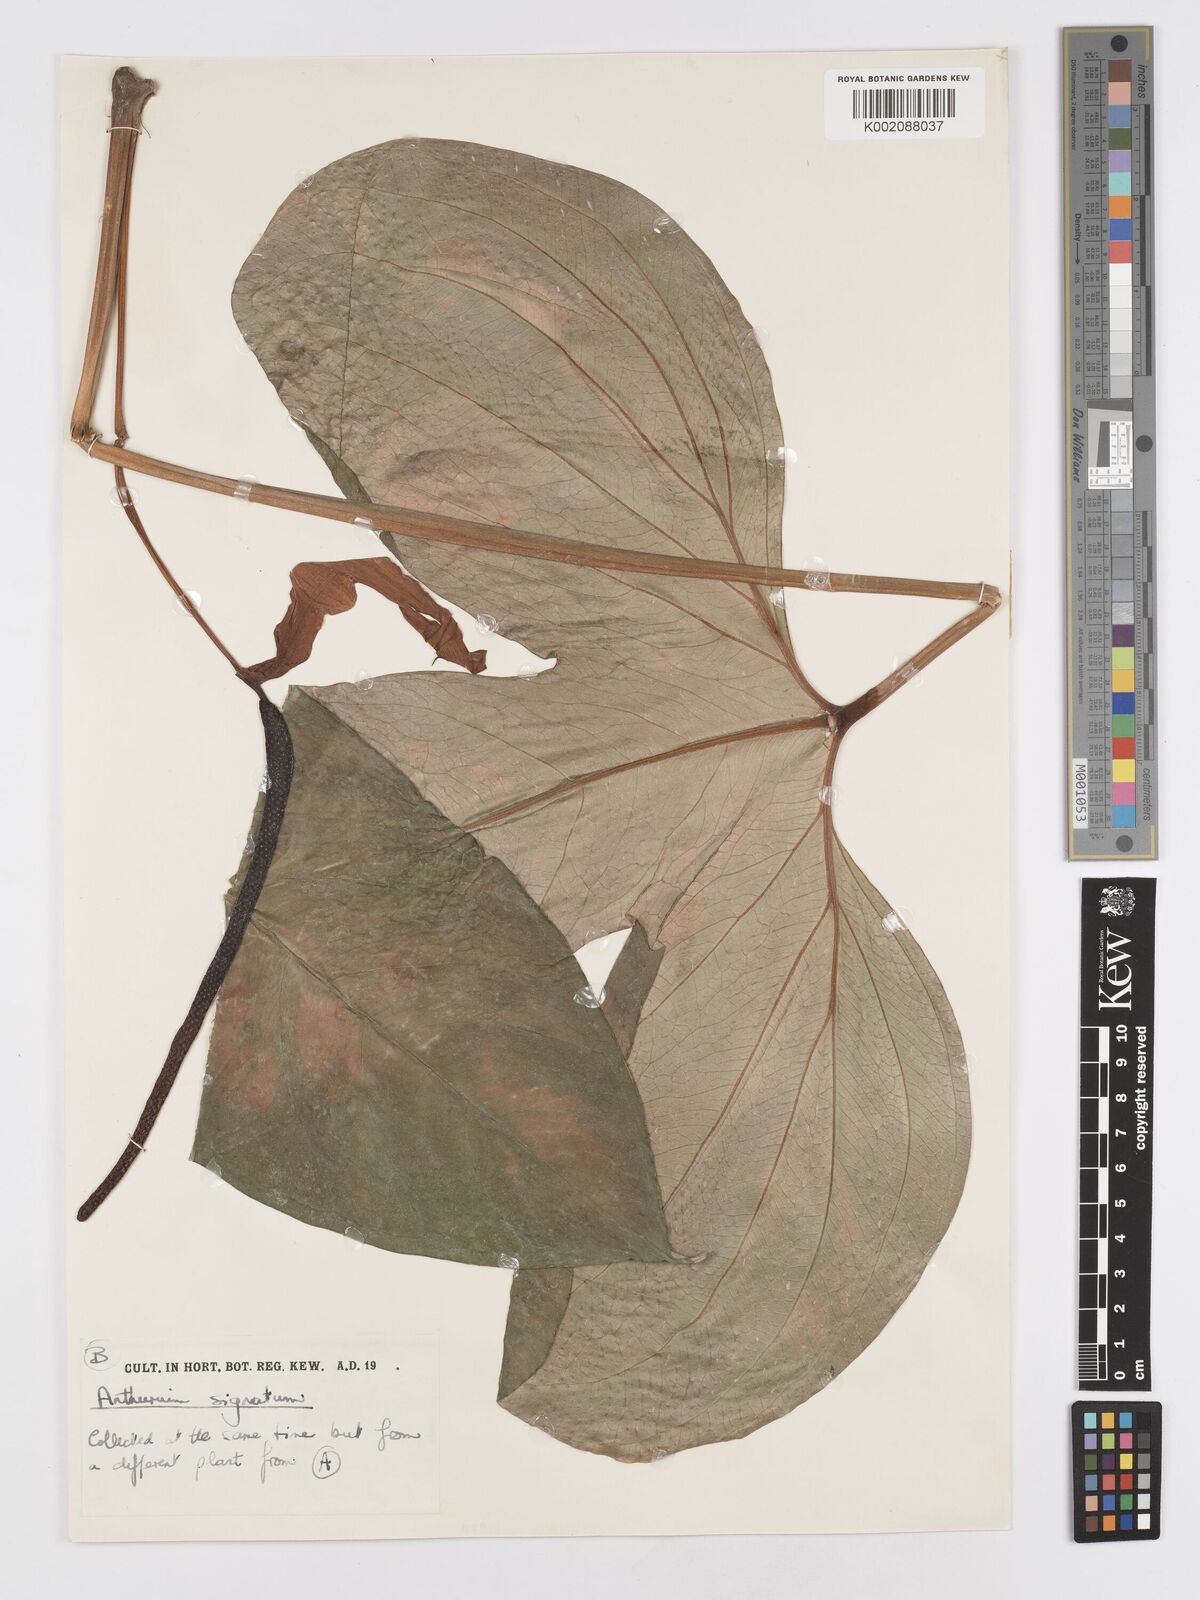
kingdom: Plantae
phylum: Tracheophyta
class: Liliopsida
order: Alismatales
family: Araceae
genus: Anthurium
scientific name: Anthurium signatum
